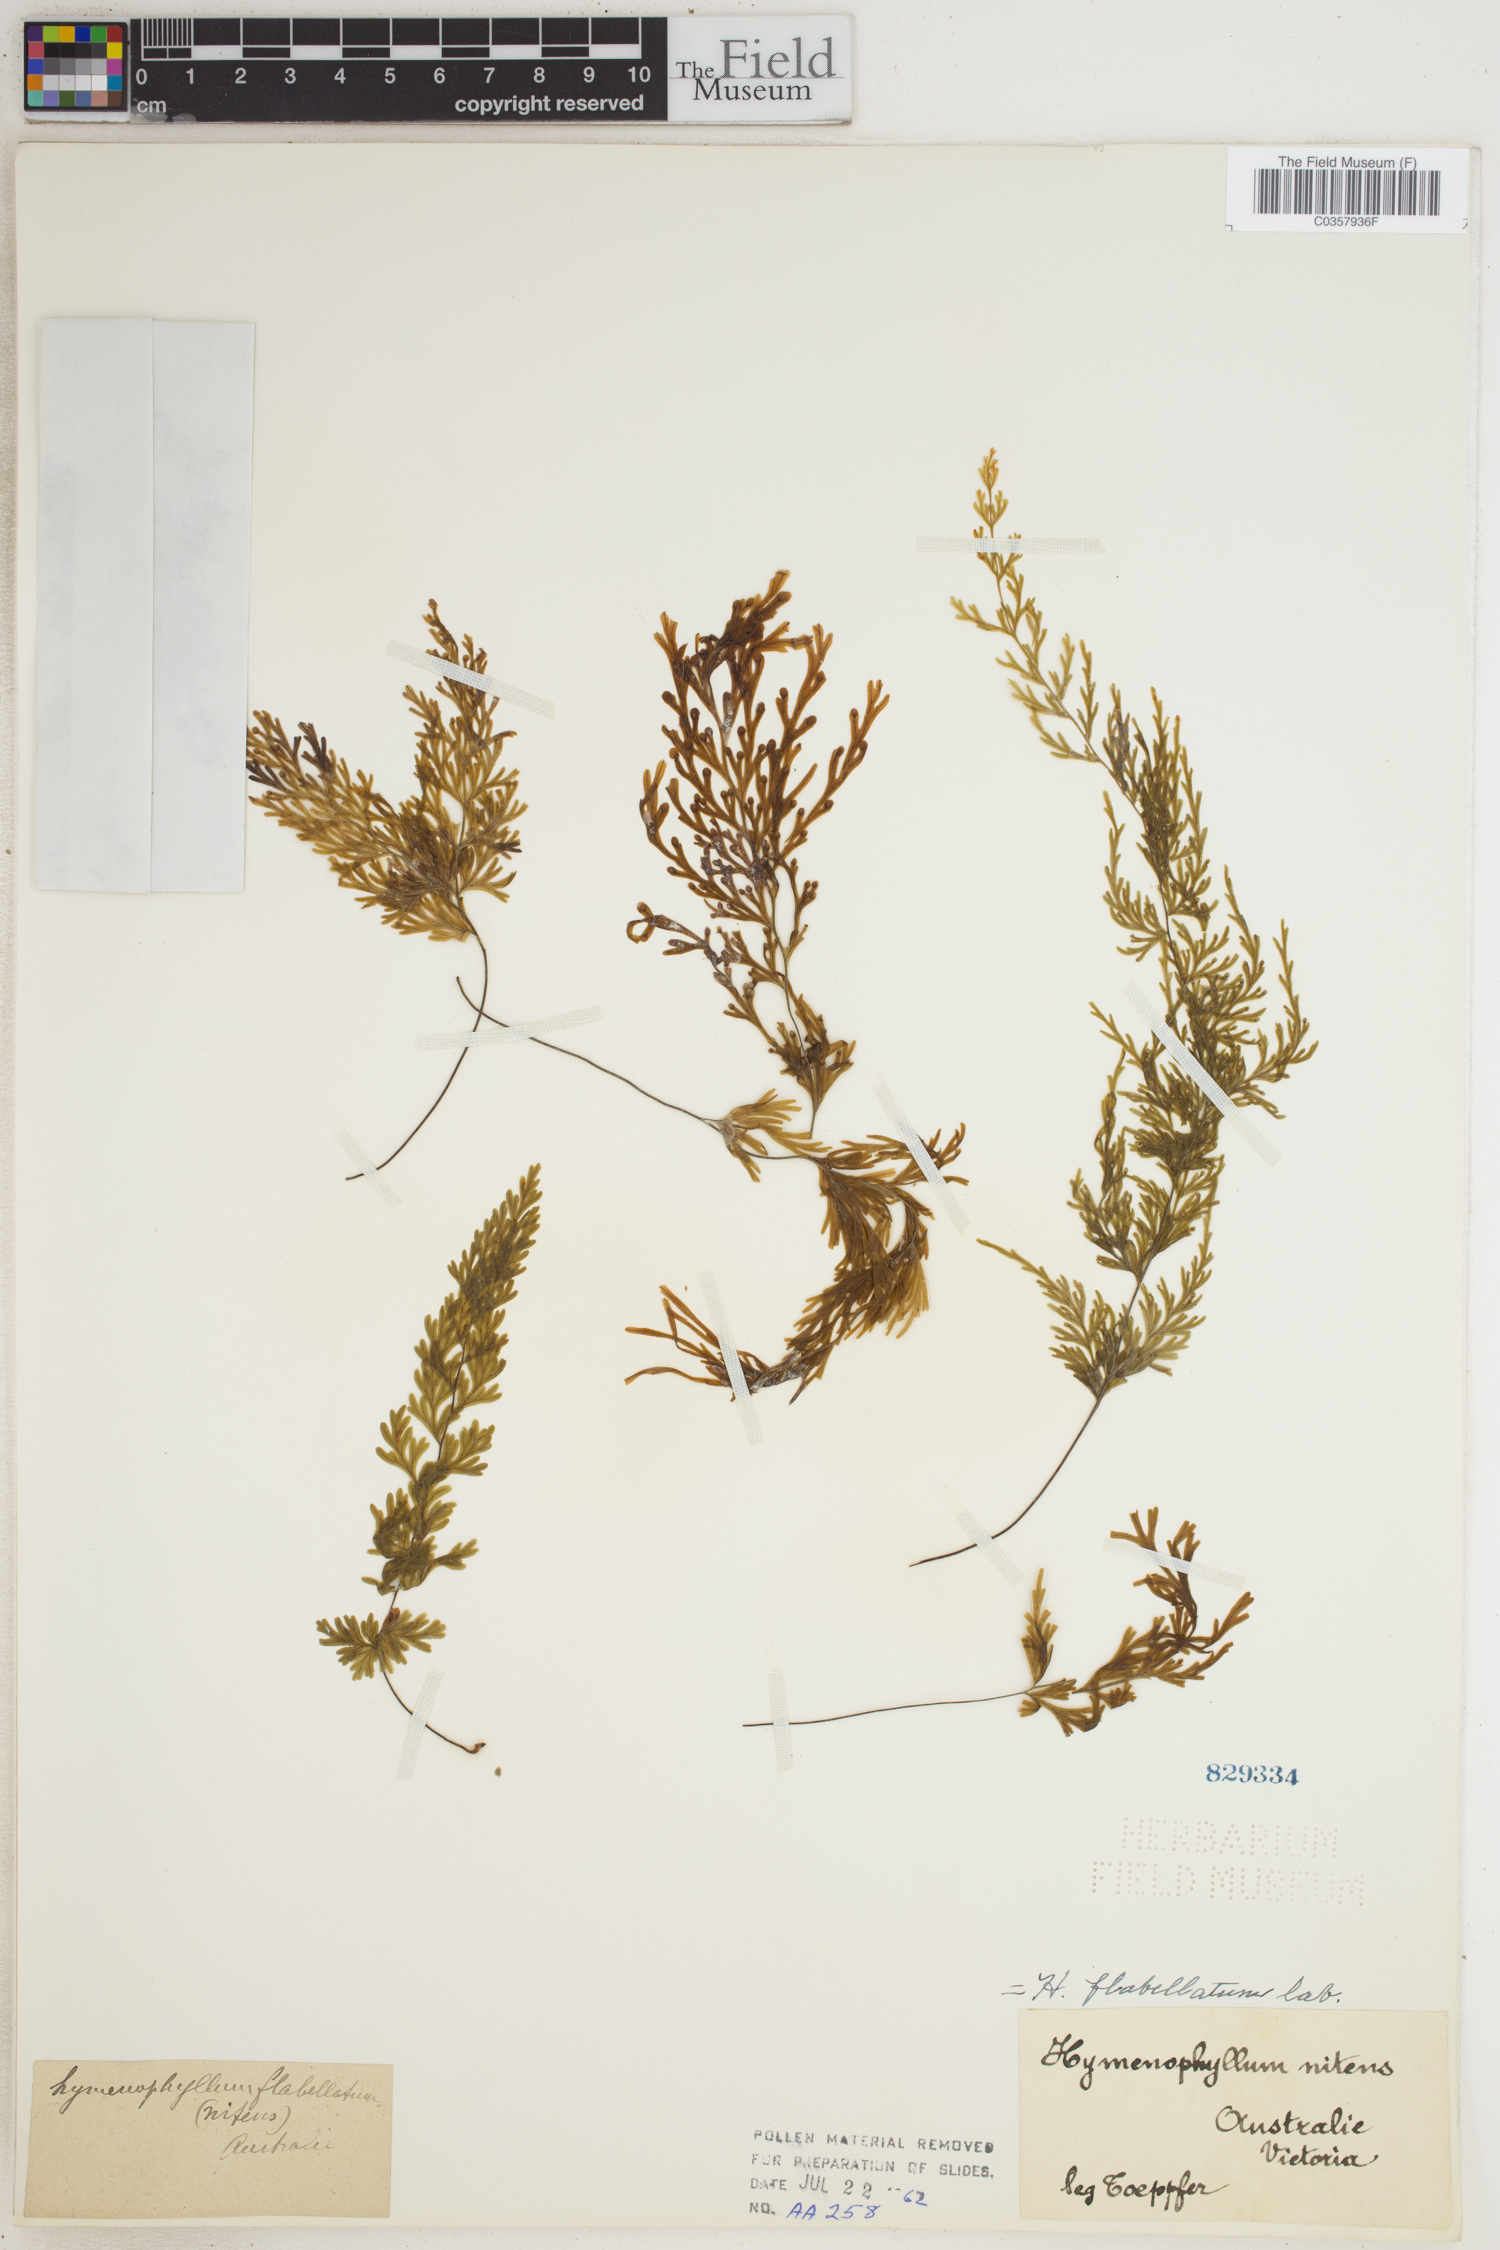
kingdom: Plantae
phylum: Tracheophyta
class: Polypodiopsida
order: Hymenophyllales
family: Hymenophyllaceae
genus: Hymenophyllum
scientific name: Hymenophyllum flabellatum
